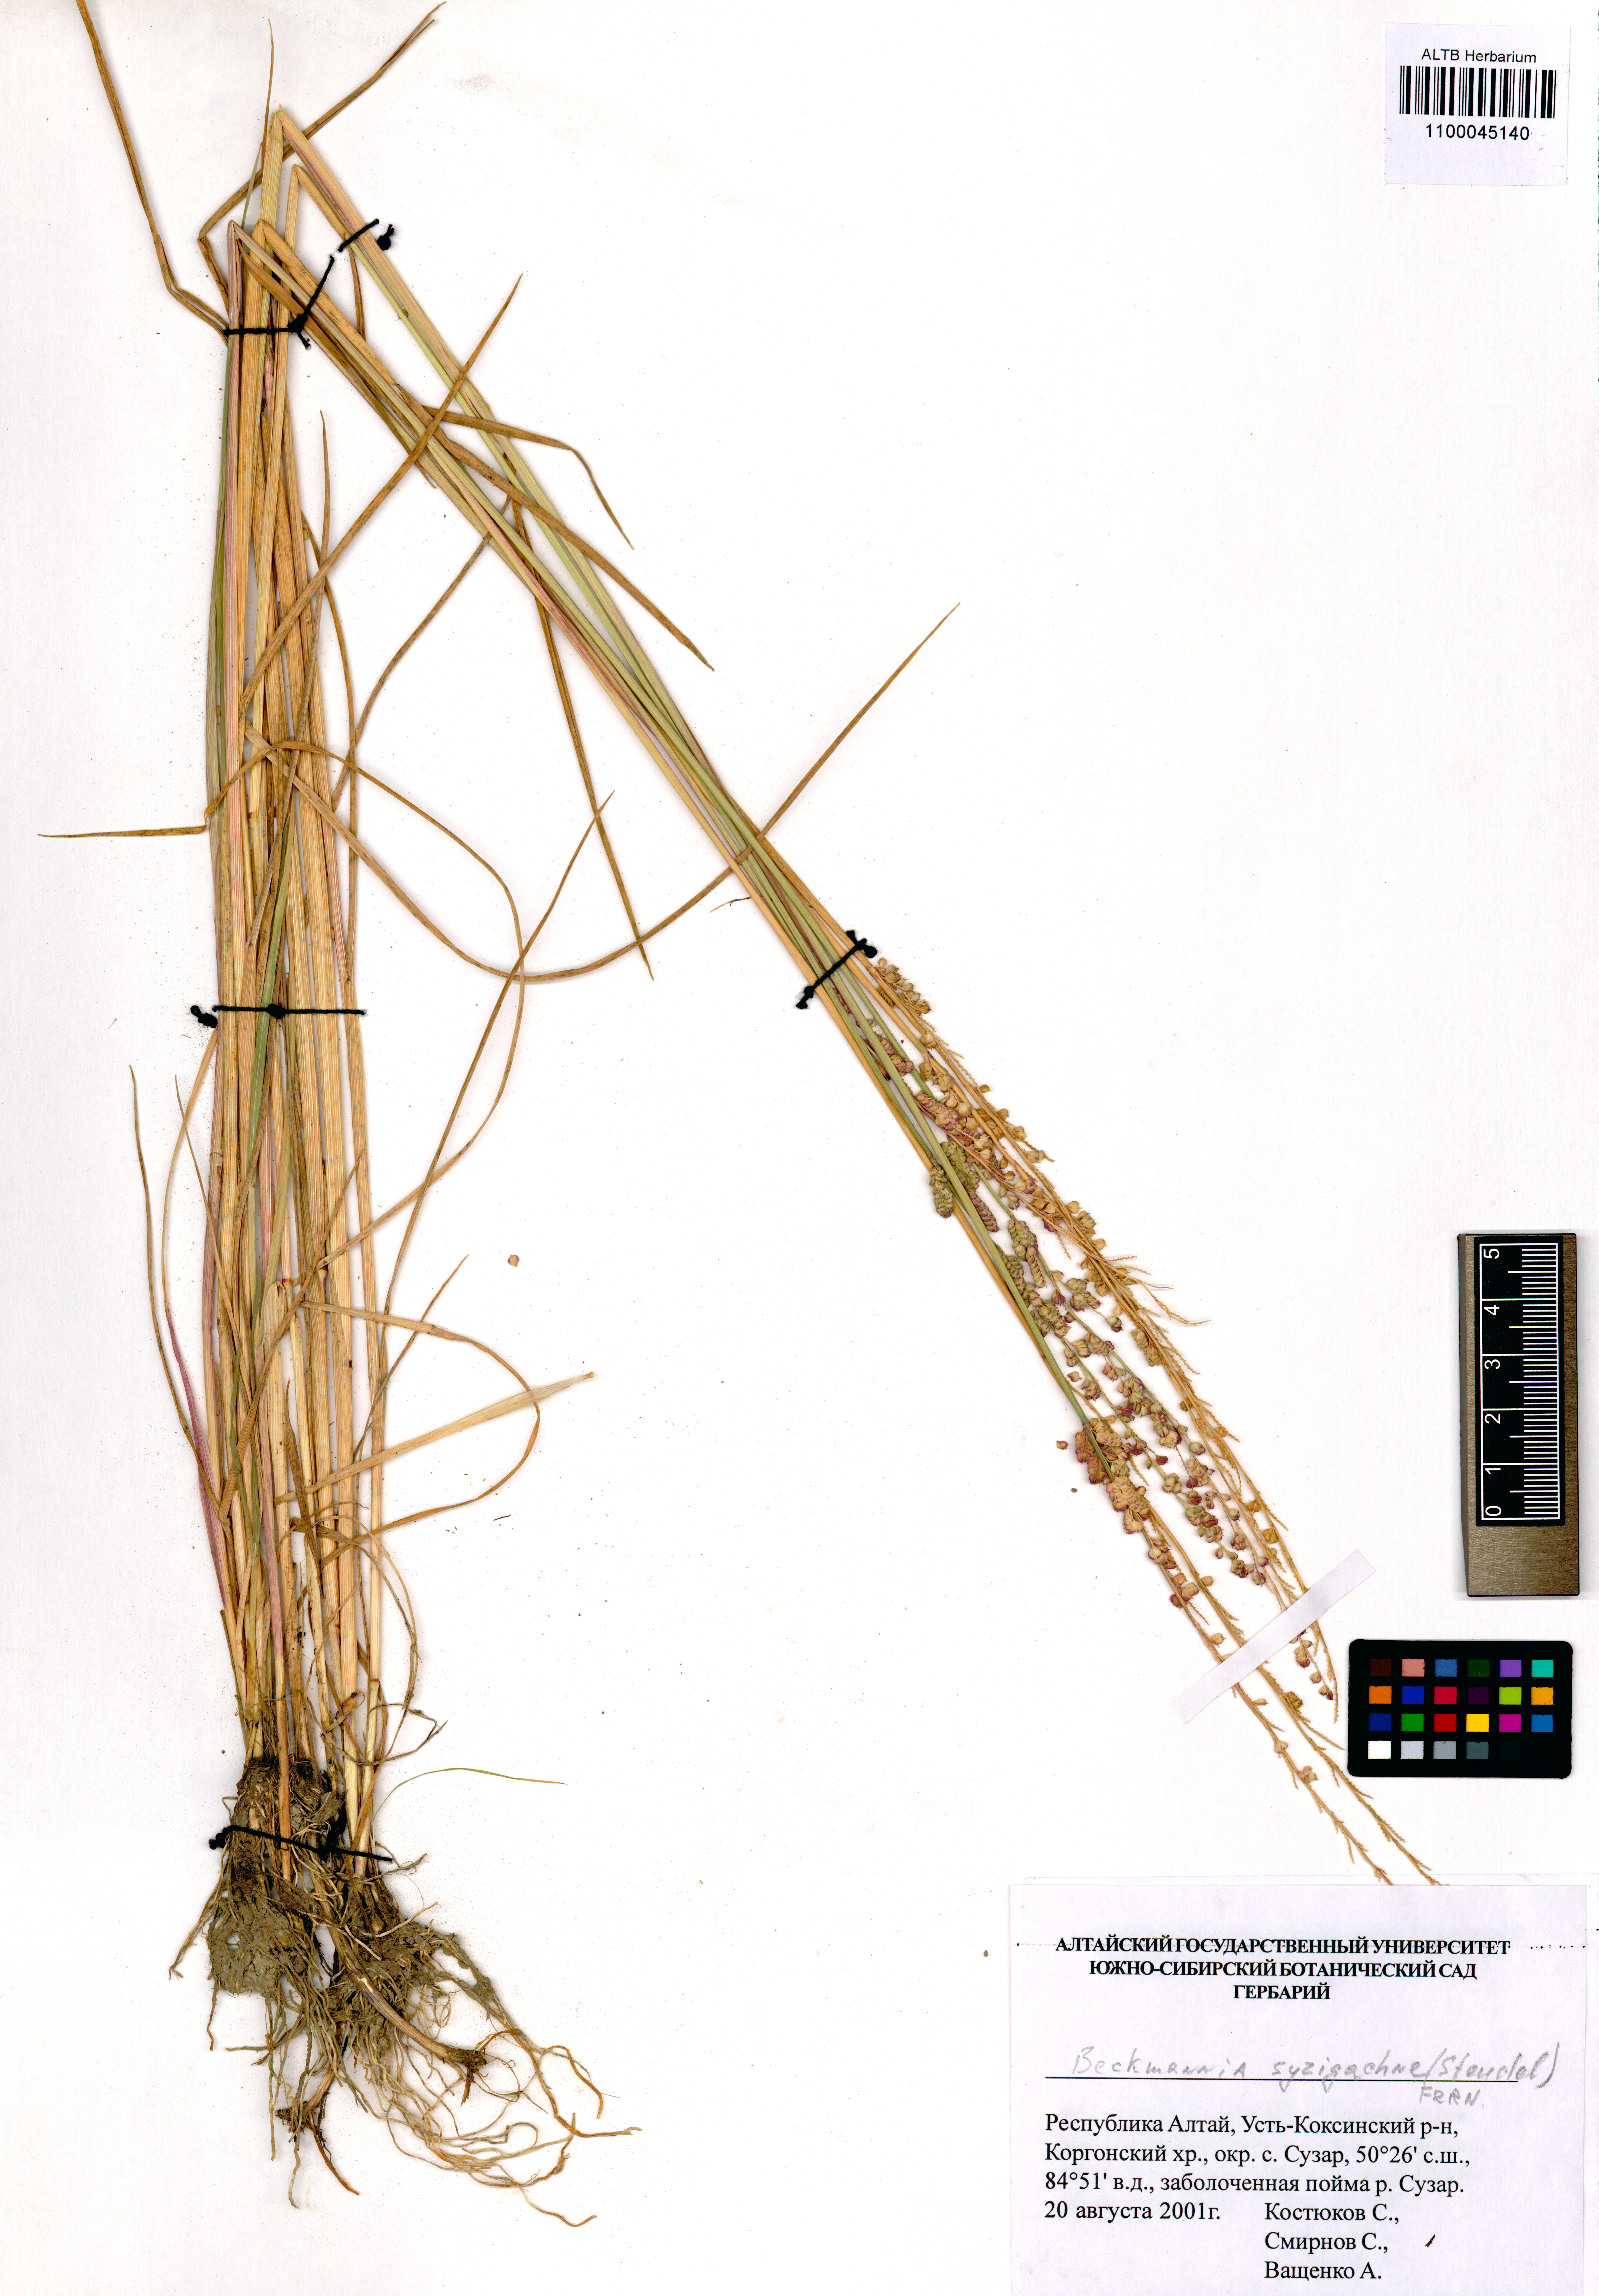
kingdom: Plantae
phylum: Tracheophyta
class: Liliopsida
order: Poales
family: Poaceae
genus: Beckmannia
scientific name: Beckmannia syzigachne
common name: American slough-grass
